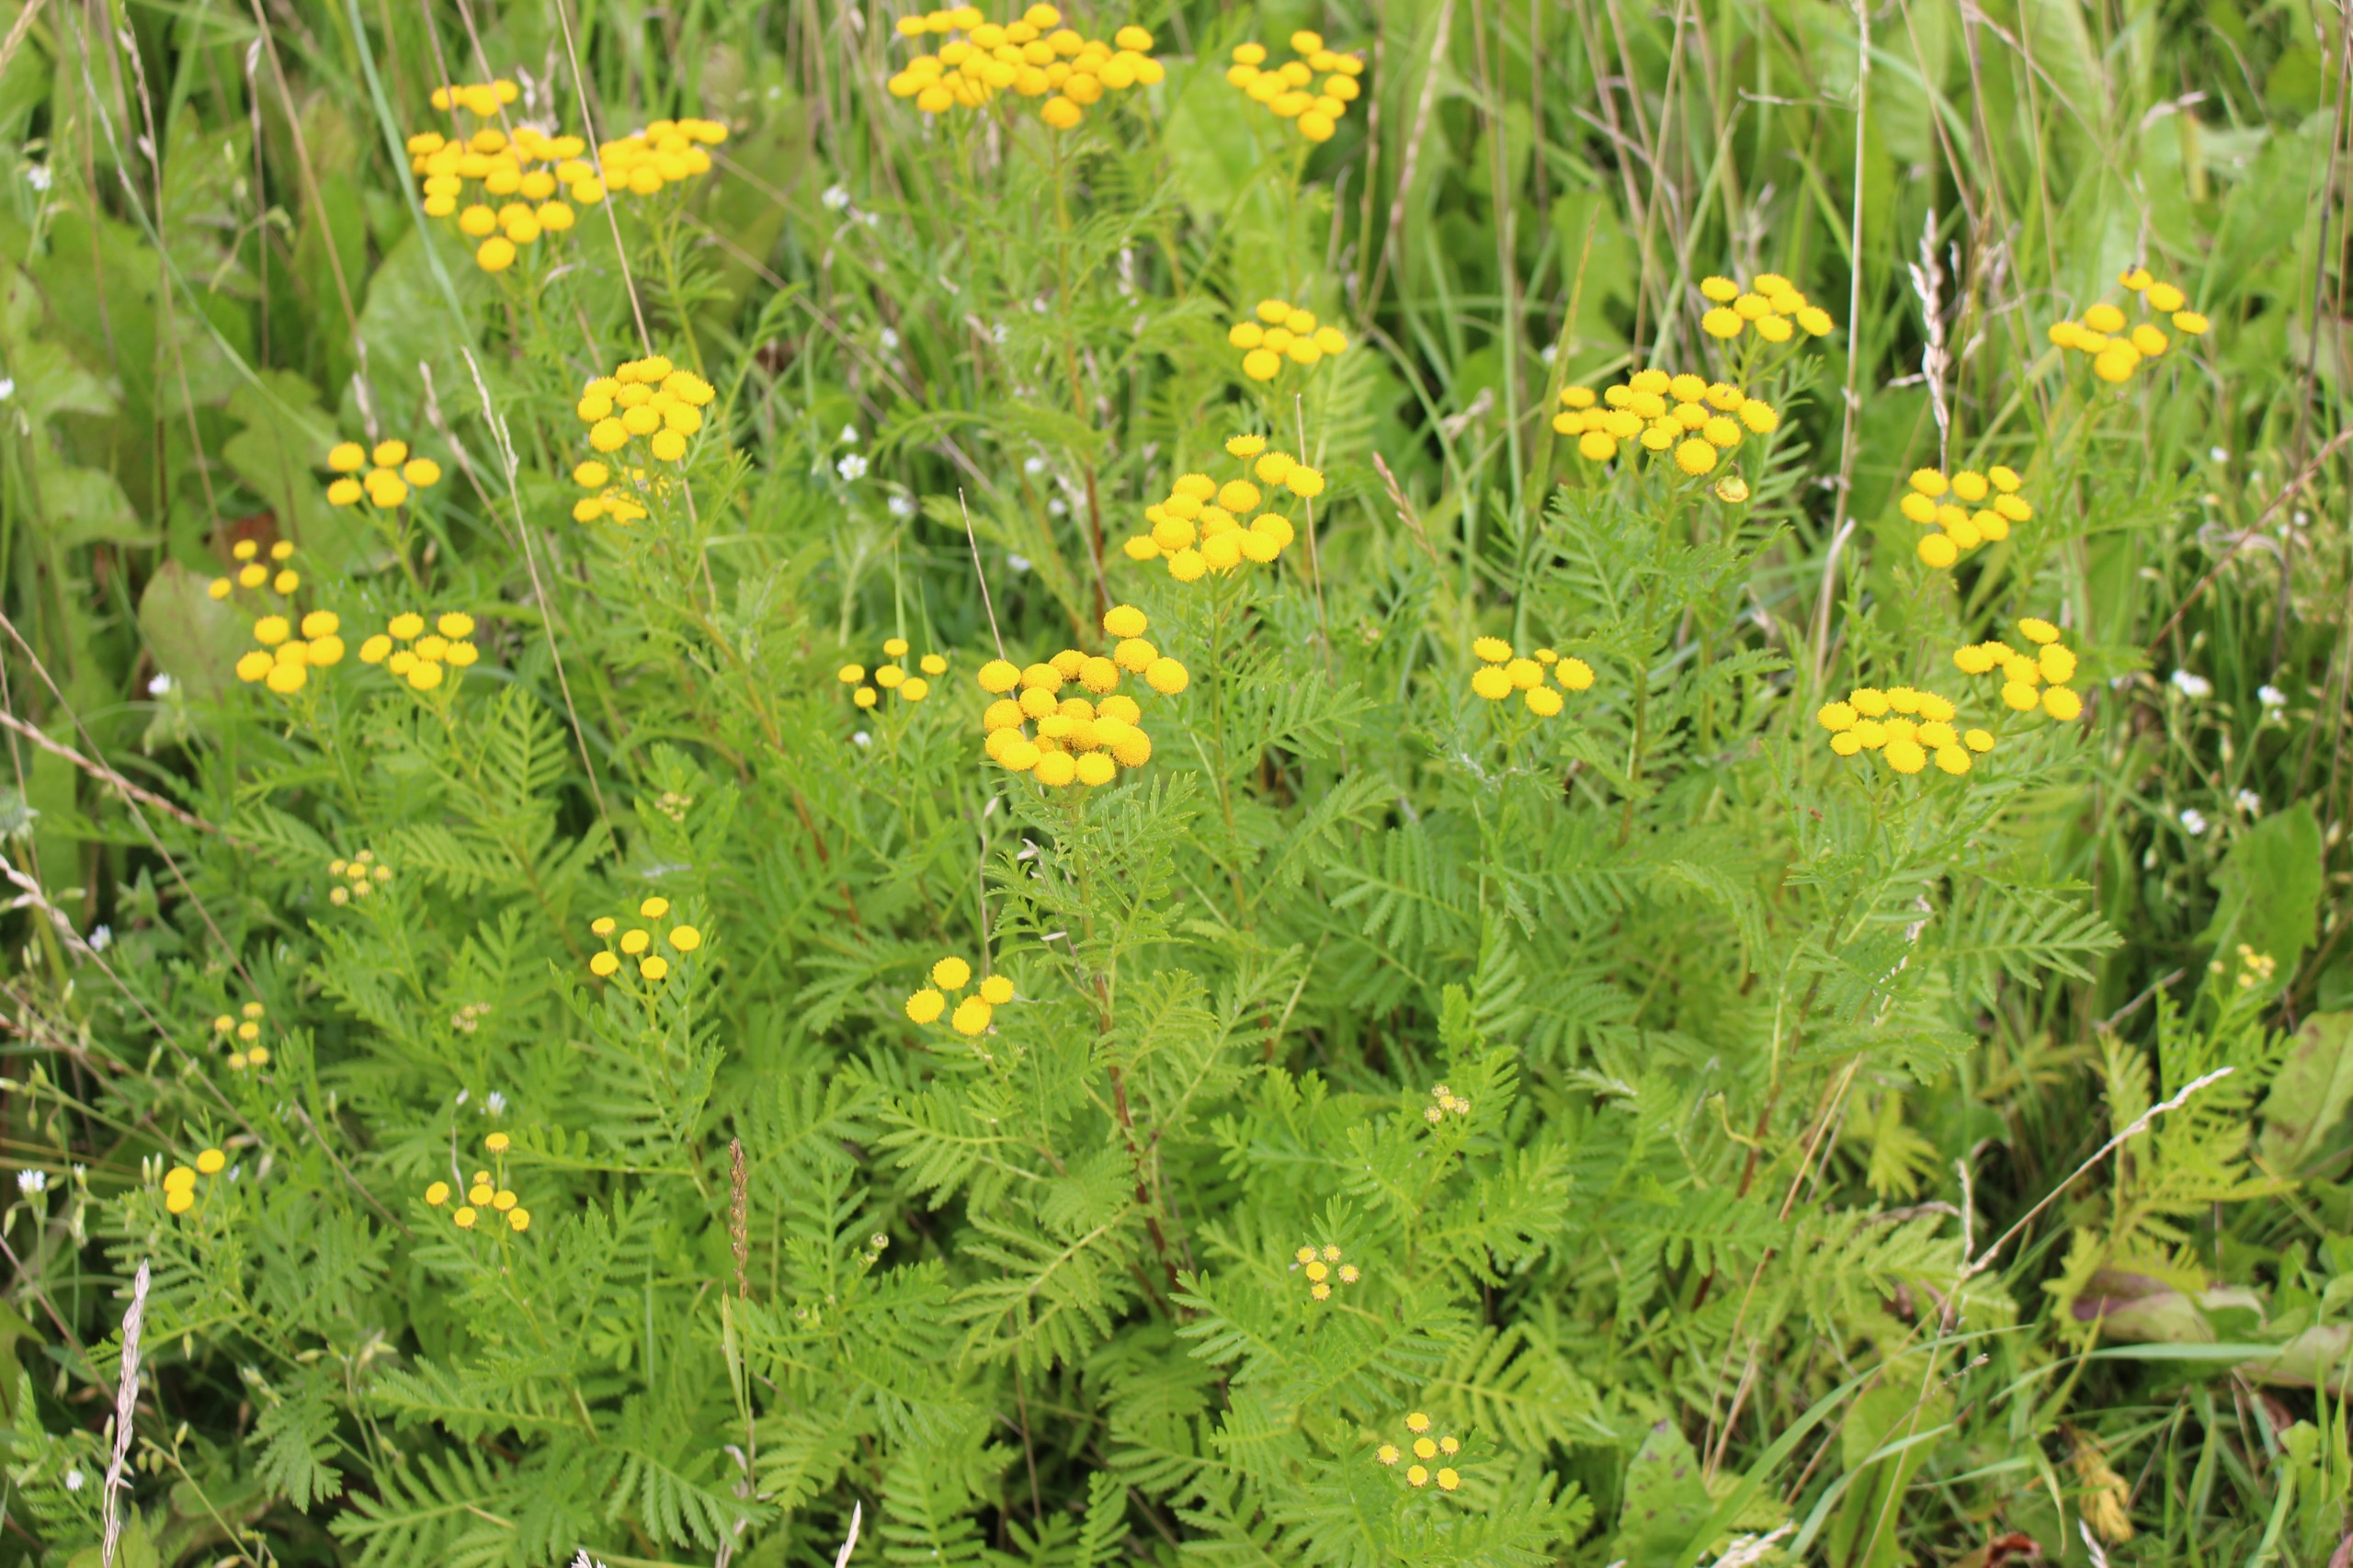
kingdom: Plantae
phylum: Tracheophyta
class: Magnoliopsida
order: Asterales
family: Asteraceae
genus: Tanacetum
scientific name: Tanacetum vulgare
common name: Rejnfan
